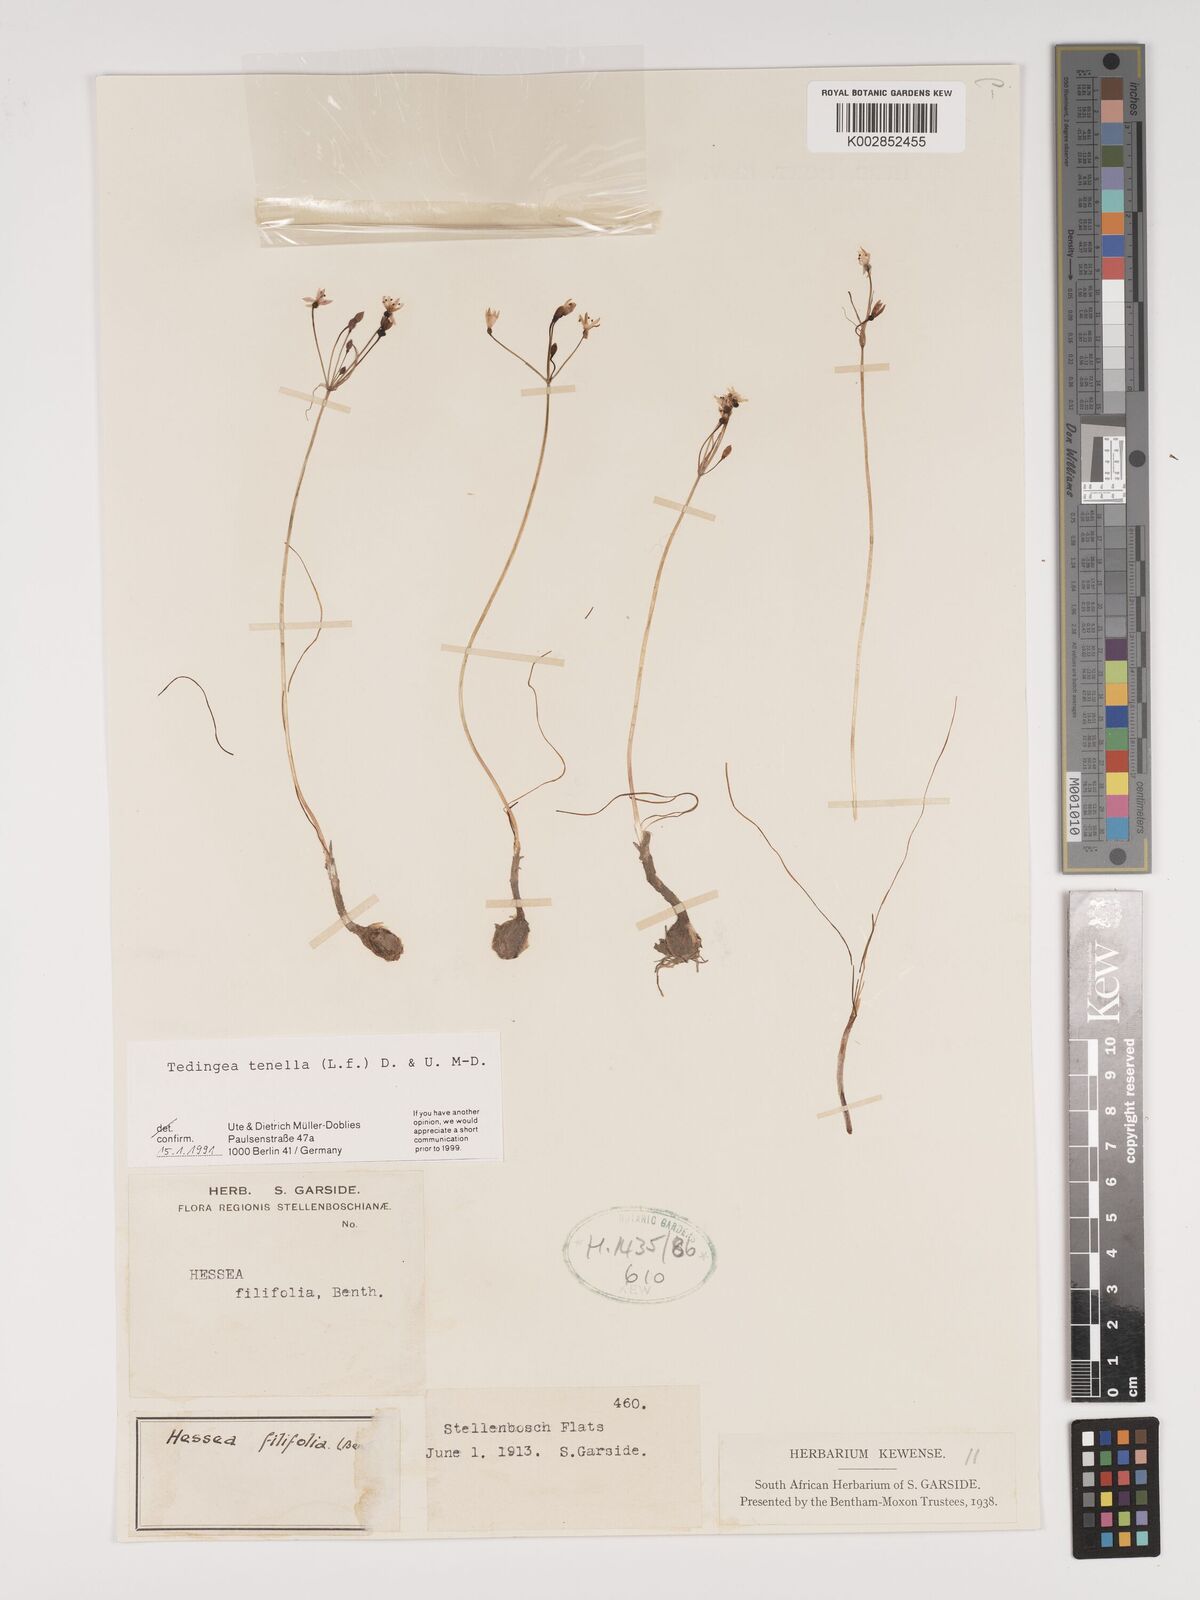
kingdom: Plantae
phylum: Tracheophyta
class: Liliopsida
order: Asparagales
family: Amaryllidaceae
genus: Strumaria
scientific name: Strumaria tenella
